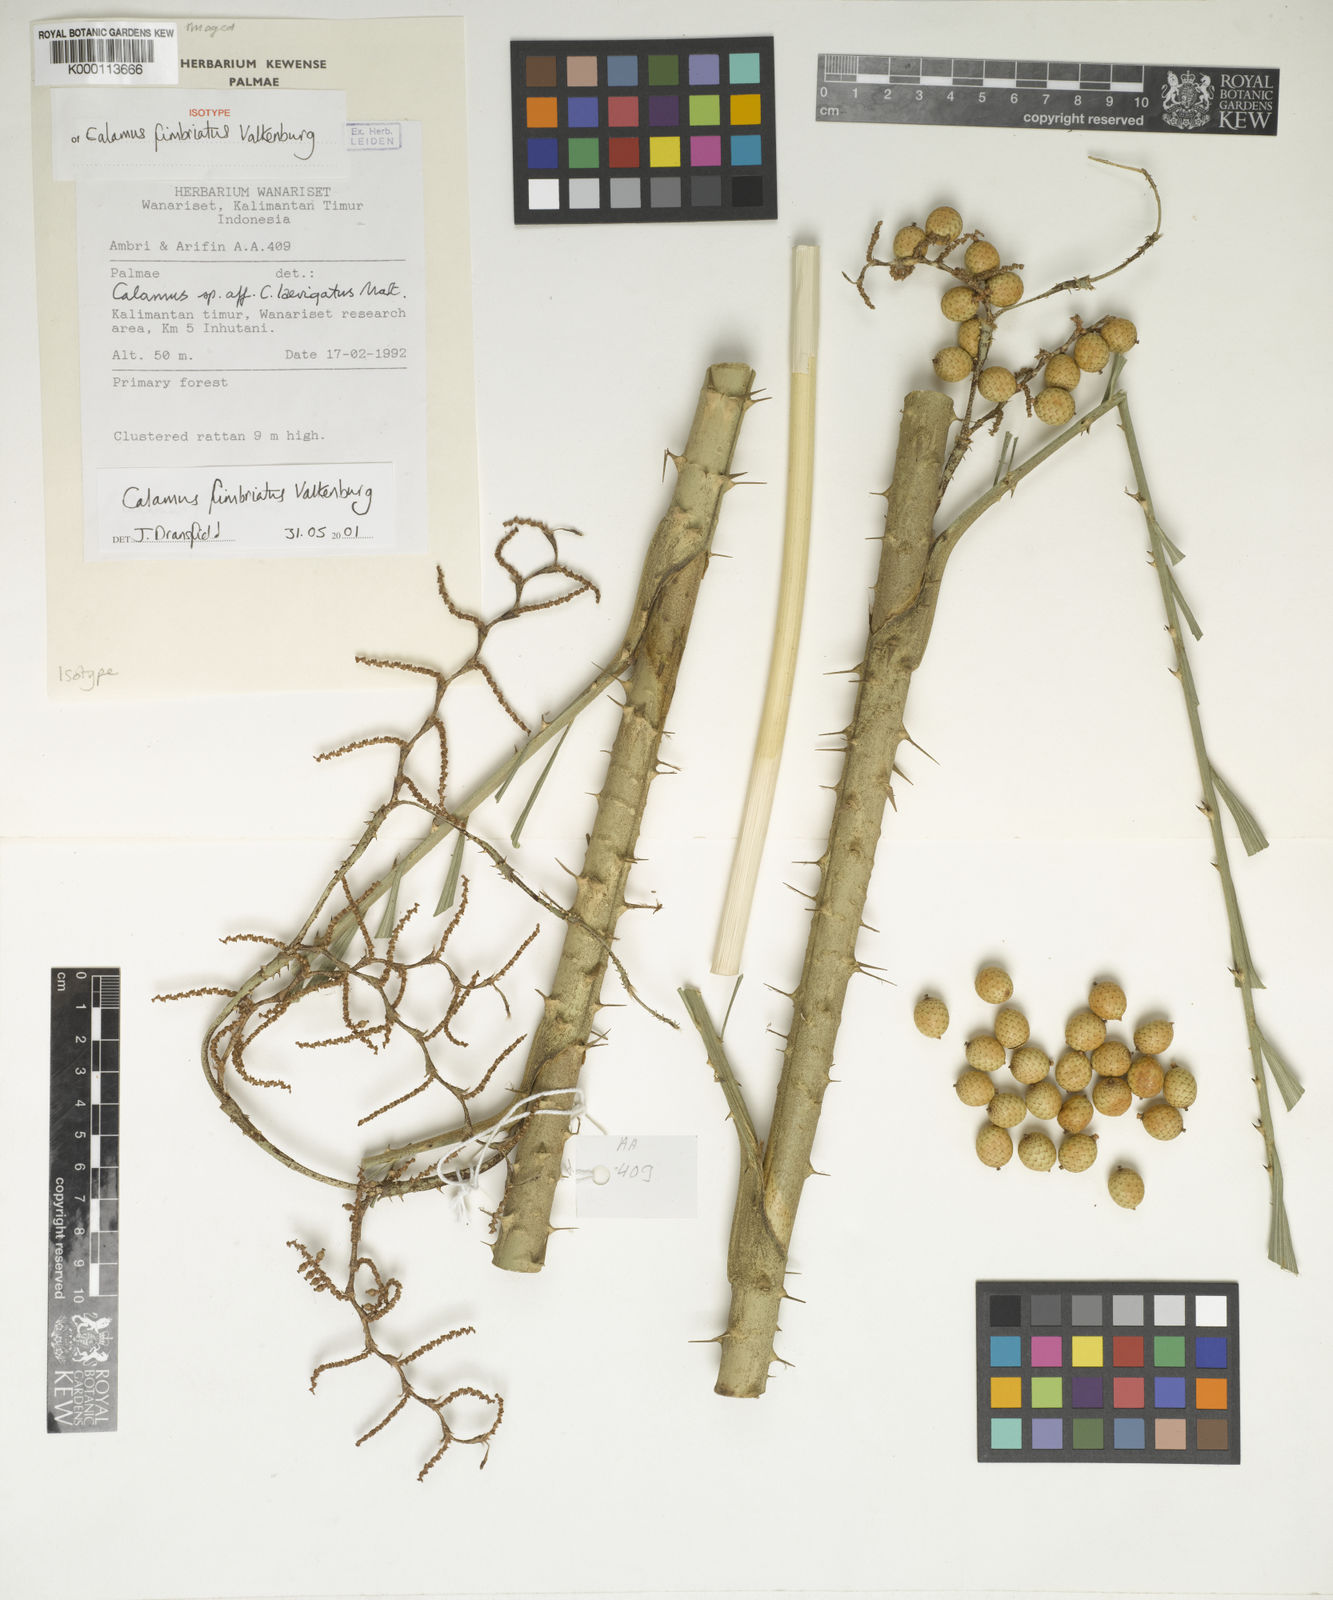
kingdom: Plantae
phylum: Tracheophyta
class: Liliopsida
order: Arecales
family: Arecaceae
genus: Calamus
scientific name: Calamus plicatus
